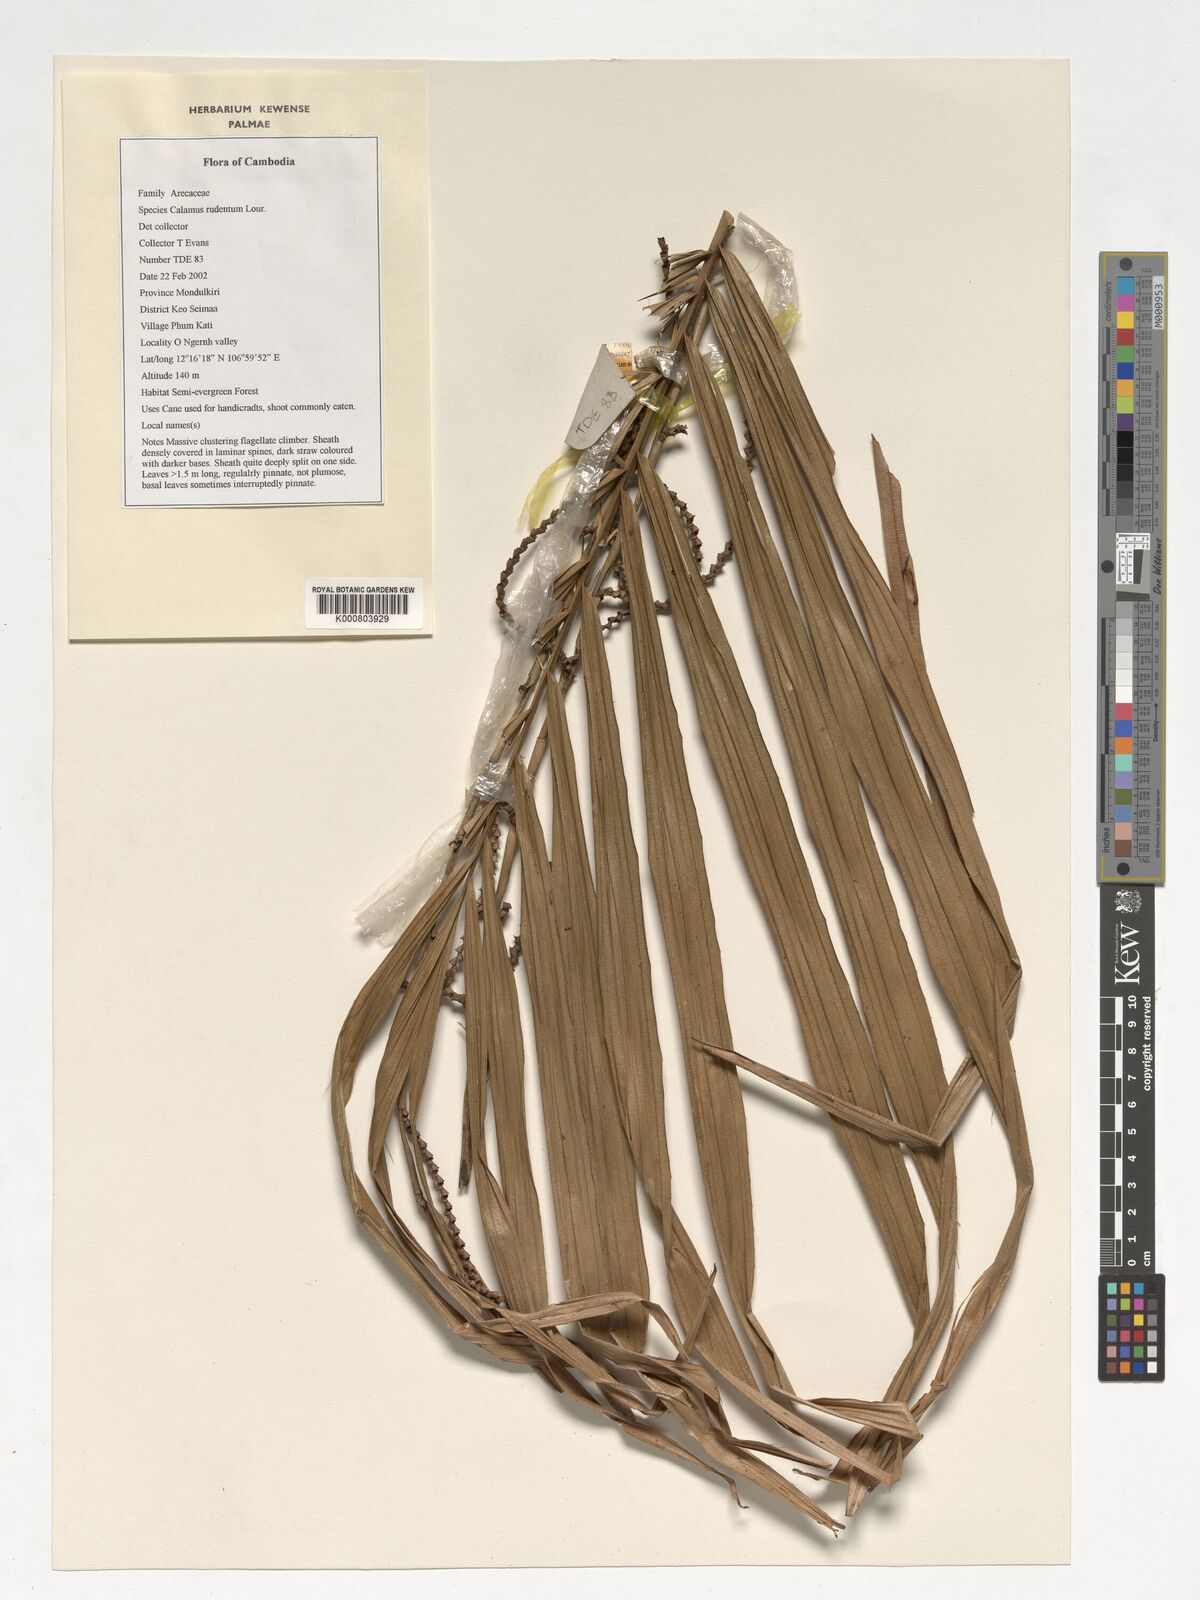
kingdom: Plantae
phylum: Tracheophyta
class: Liliopsida
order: Arecales
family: Arecaceae
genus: Calamus
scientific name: Calamus rudentum
